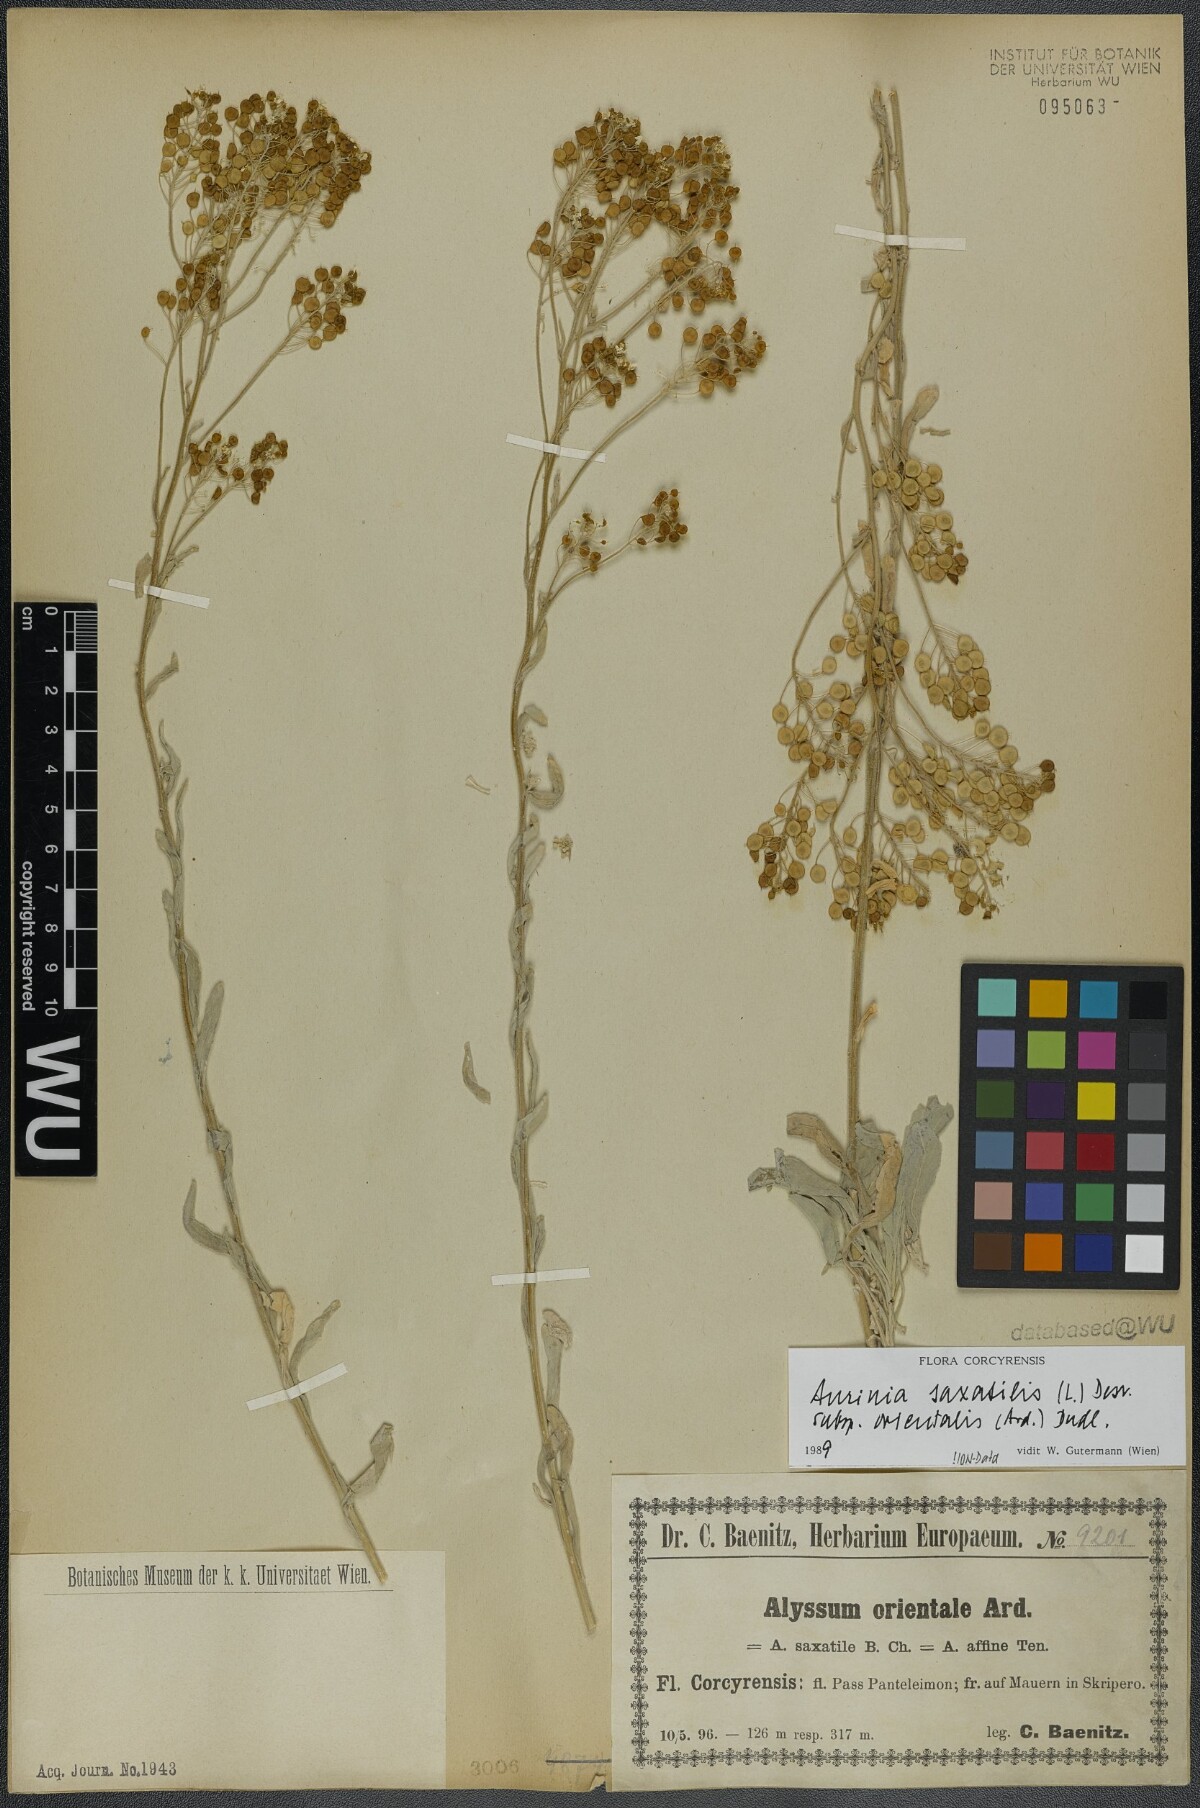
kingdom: Plantae
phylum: Tracheophyta
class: Magnoliopsida
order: Brassicales
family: Brassicaceae
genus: Aurinia
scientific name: Aurinia saxatilis
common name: Golden-tuft alyssum
